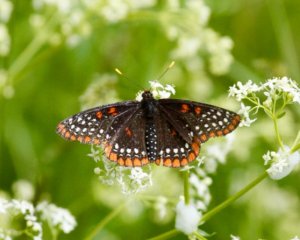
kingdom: Animalia
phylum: Arthropoda
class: Insecta
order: Lepidoptera
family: Nymphalidae
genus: Euphydryas
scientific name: Euphydryas phaeton
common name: Baltimore Checkerspot
